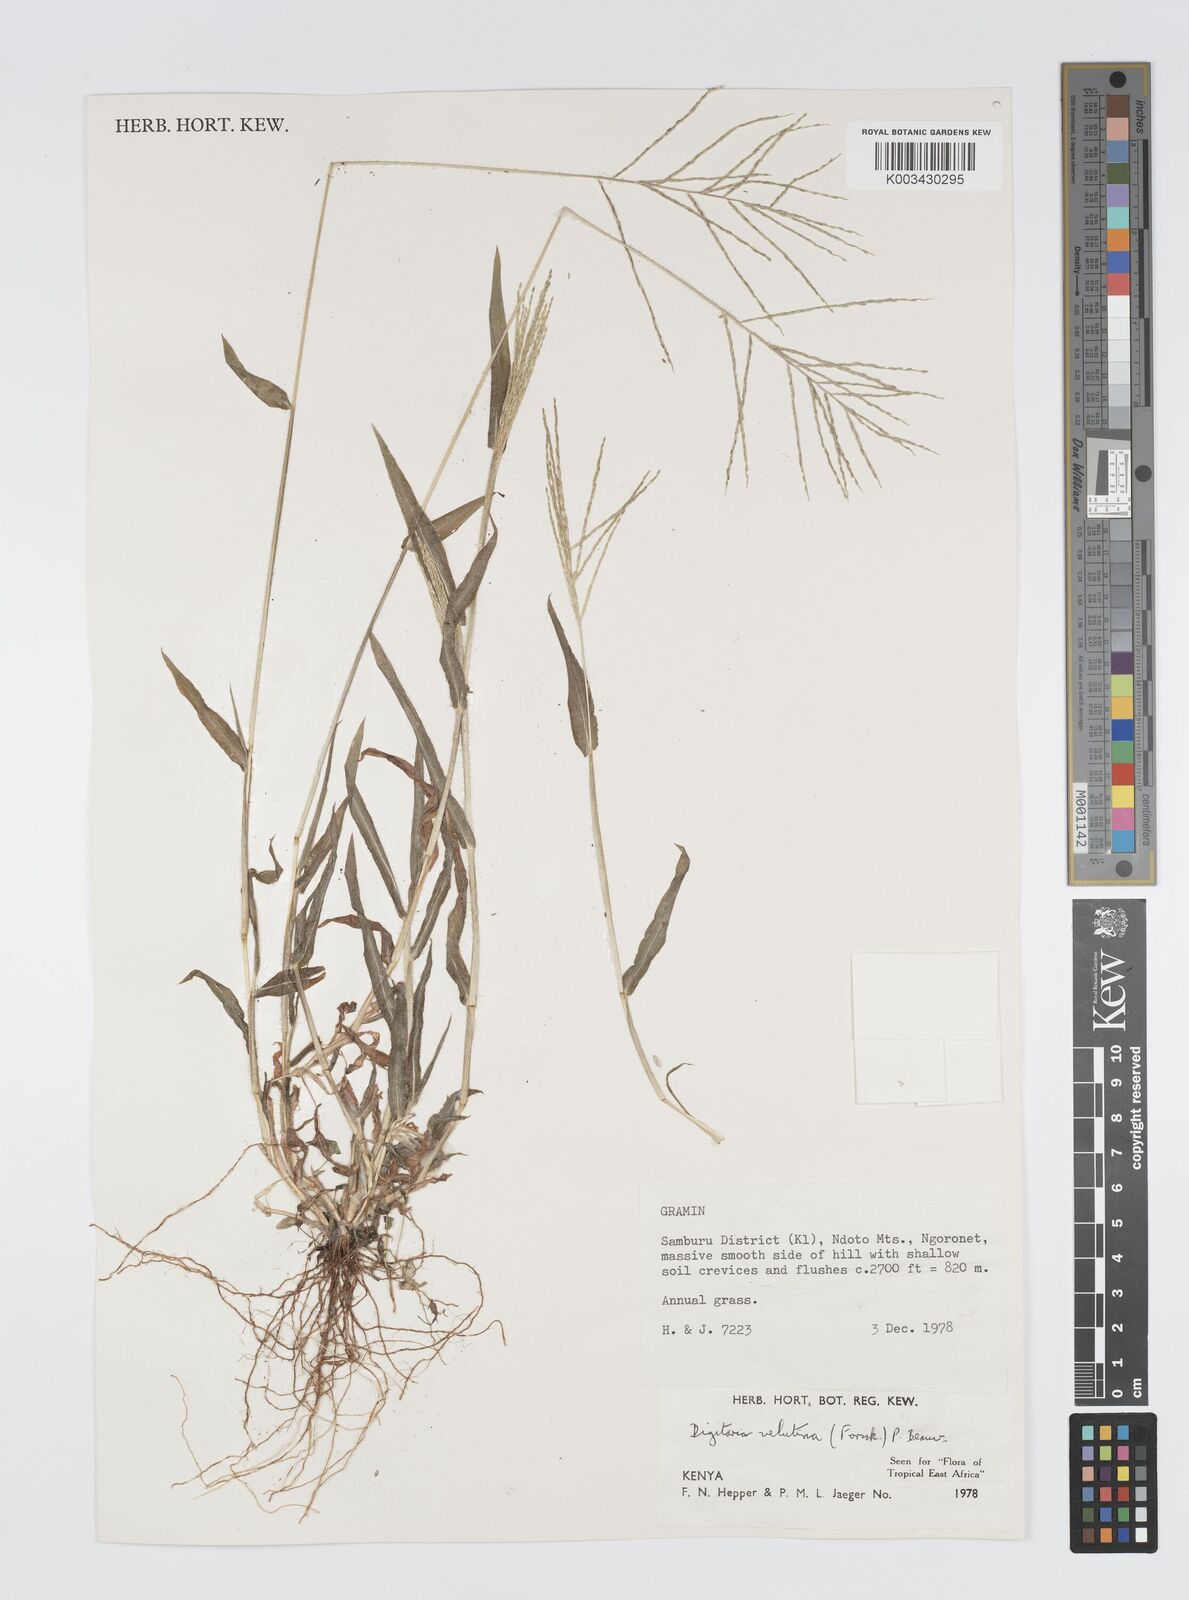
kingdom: Plantae
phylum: Tracheophyta
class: Liliopsida
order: Poales
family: Poaceae
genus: Digitaria
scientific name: Digitaria velutina
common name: Long-plume finger grass
